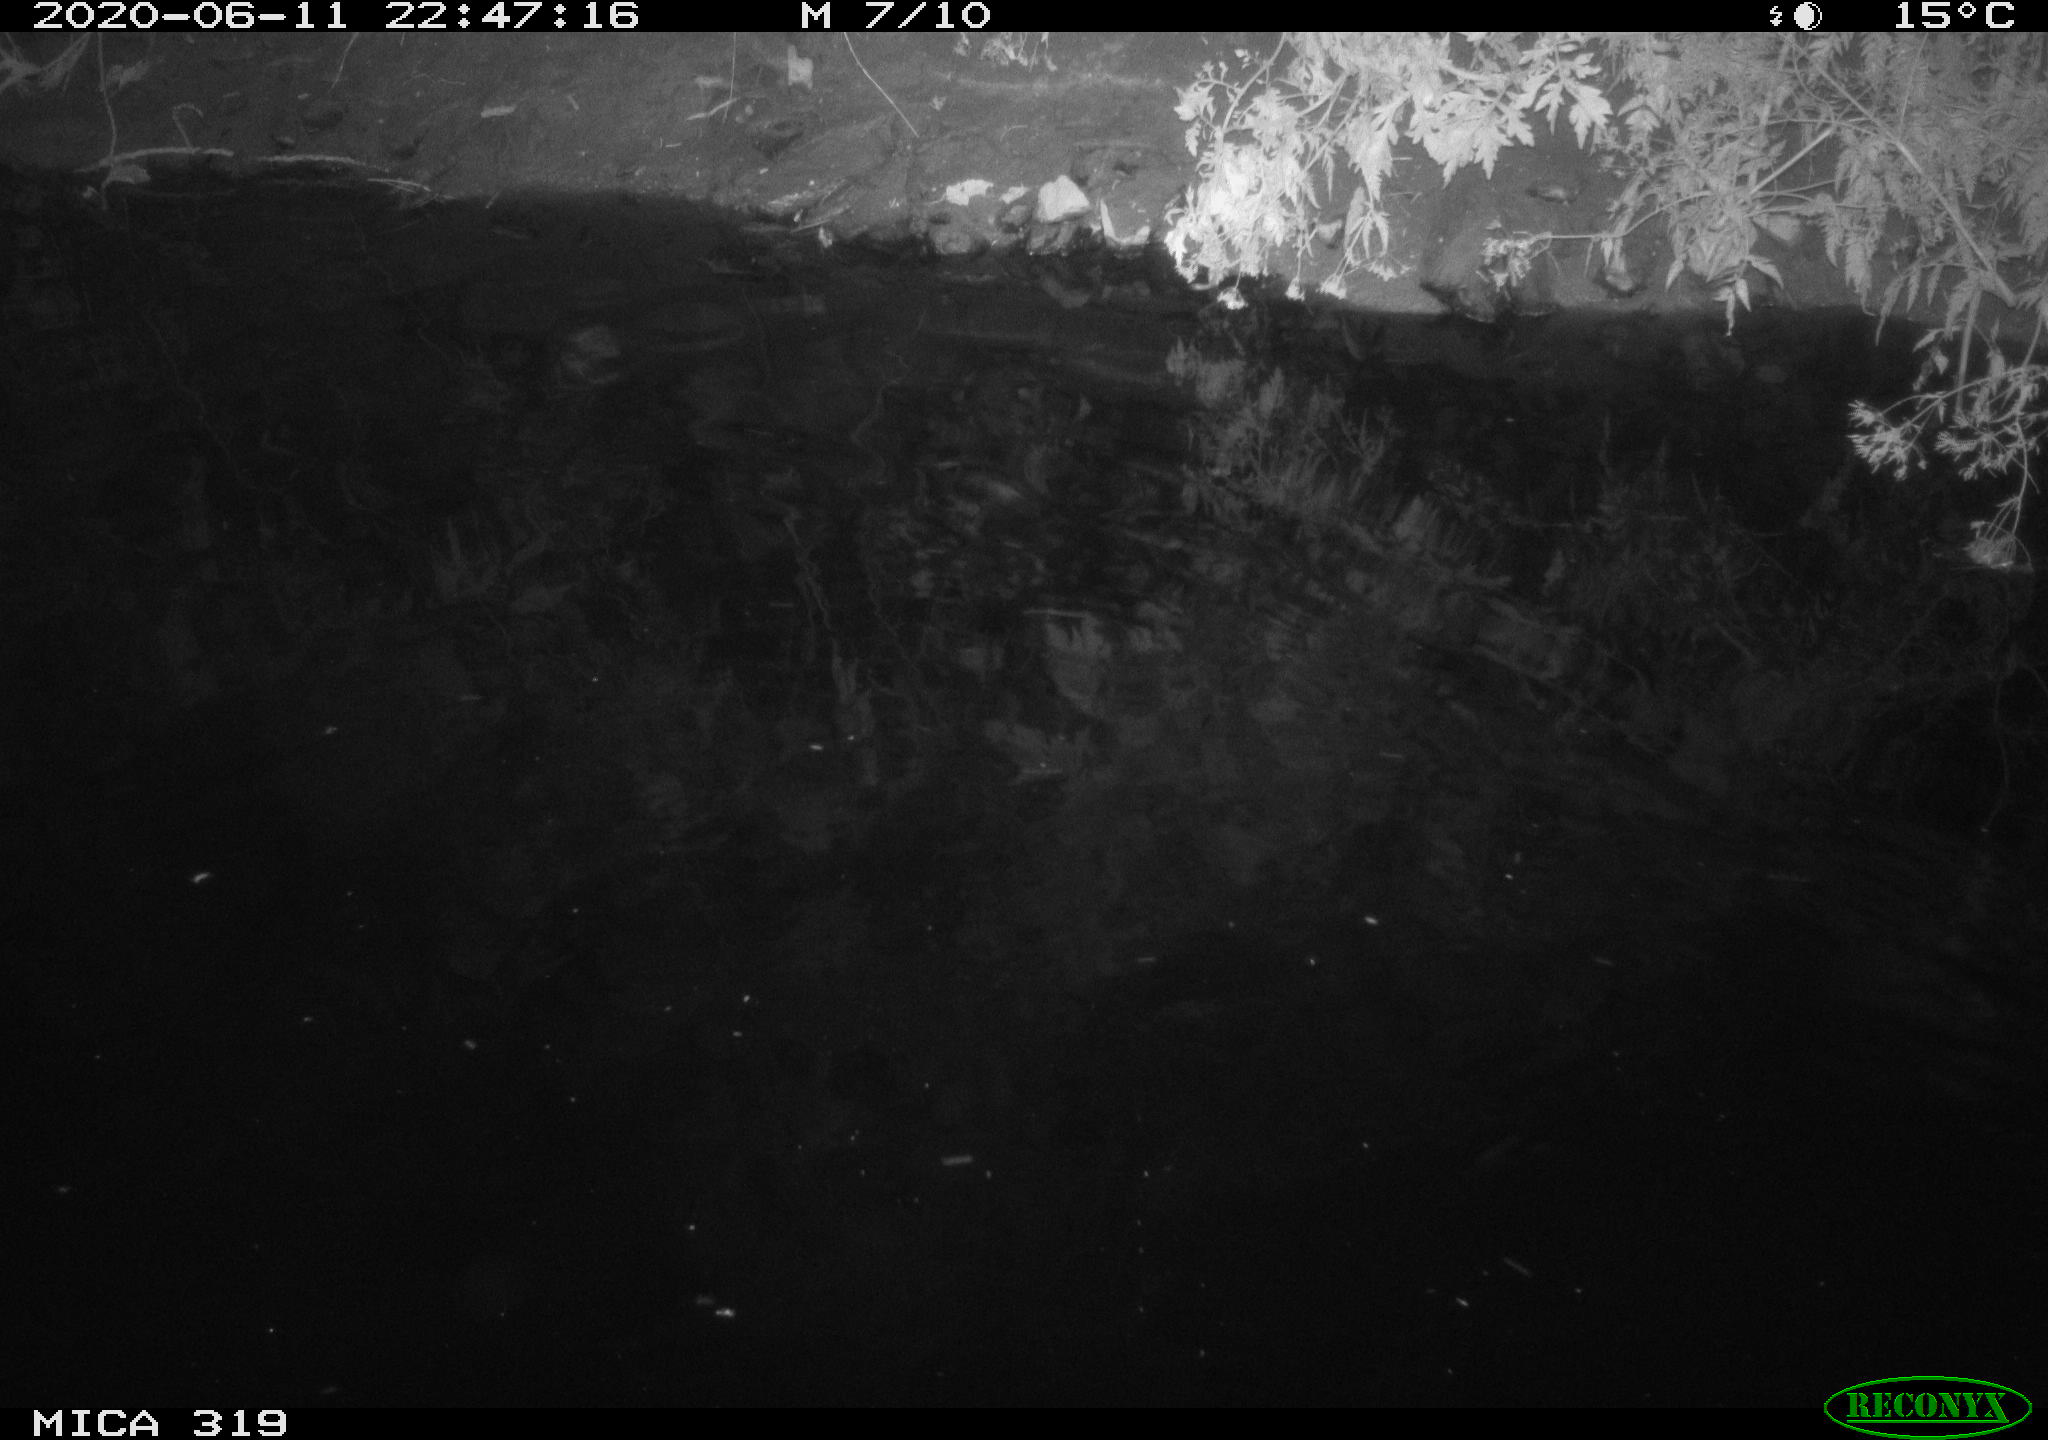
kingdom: Animalia
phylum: Chordata
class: Aves
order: Anseriformes
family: Anatidae
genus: Anas
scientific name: Anas platyrhynchos
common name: Mallard
